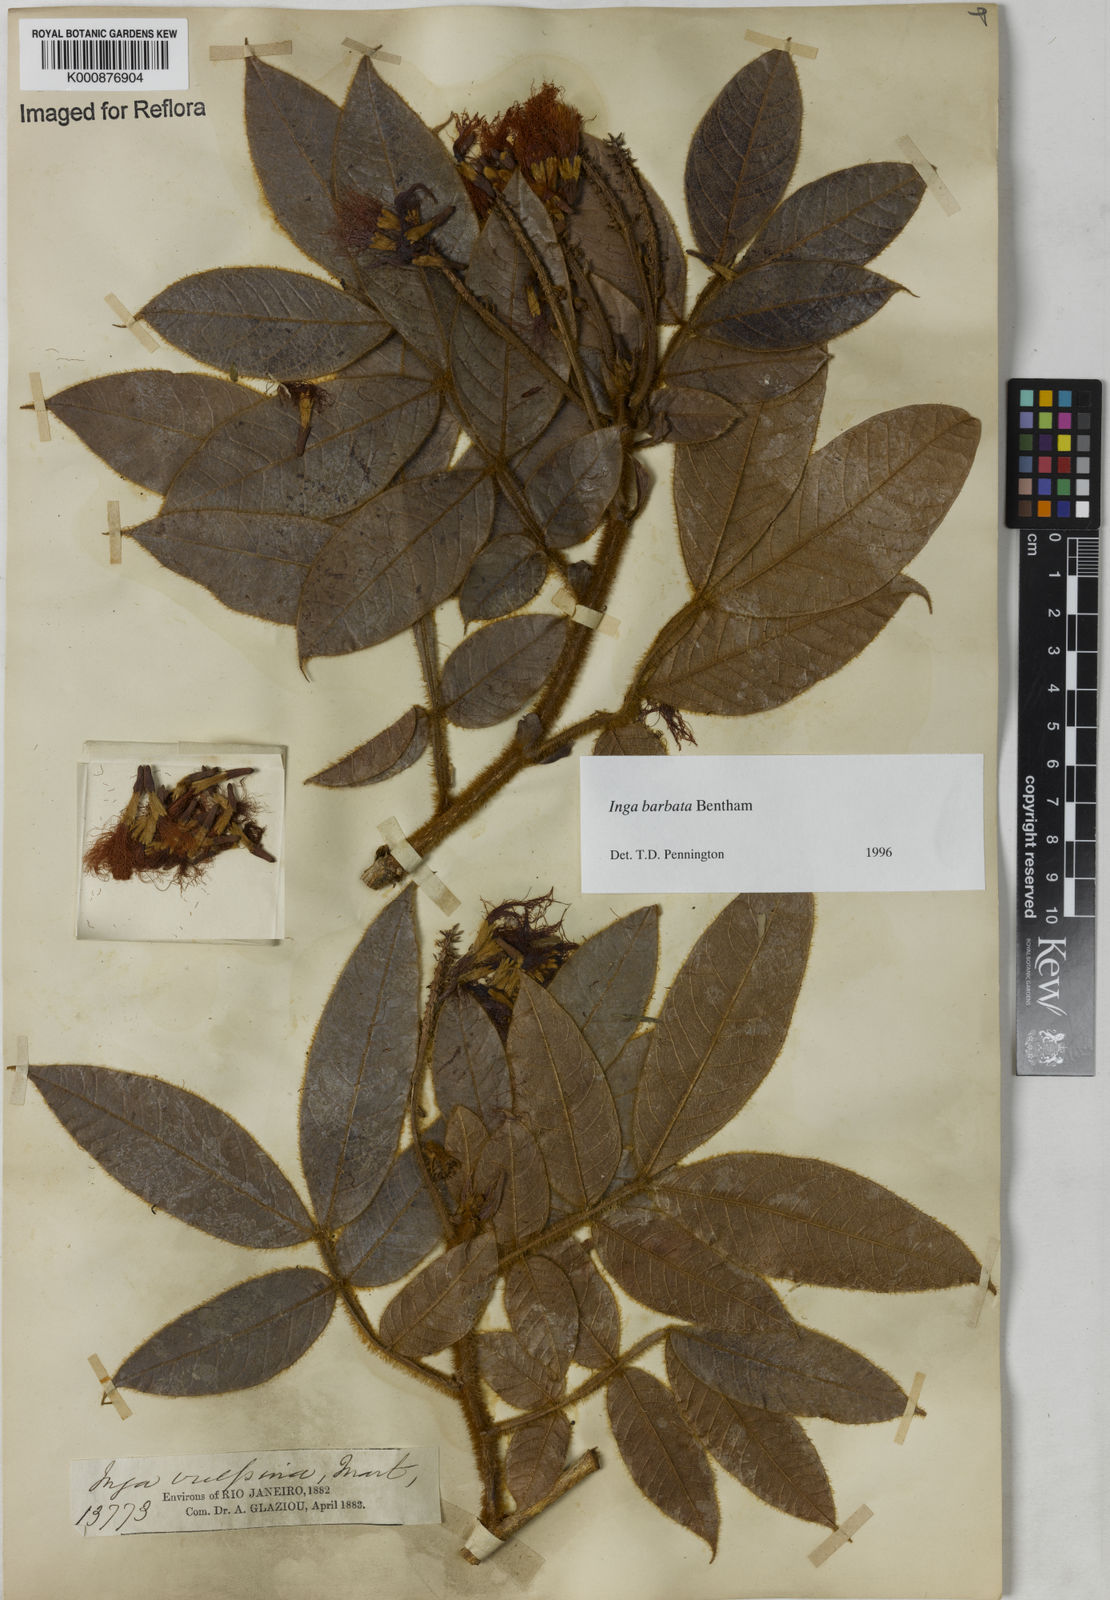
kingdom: Plantae
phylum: Tracheophyta
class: Magnoliopsida
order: Fabales
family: Fabaceae
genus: Inga
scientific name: Inga barbata
